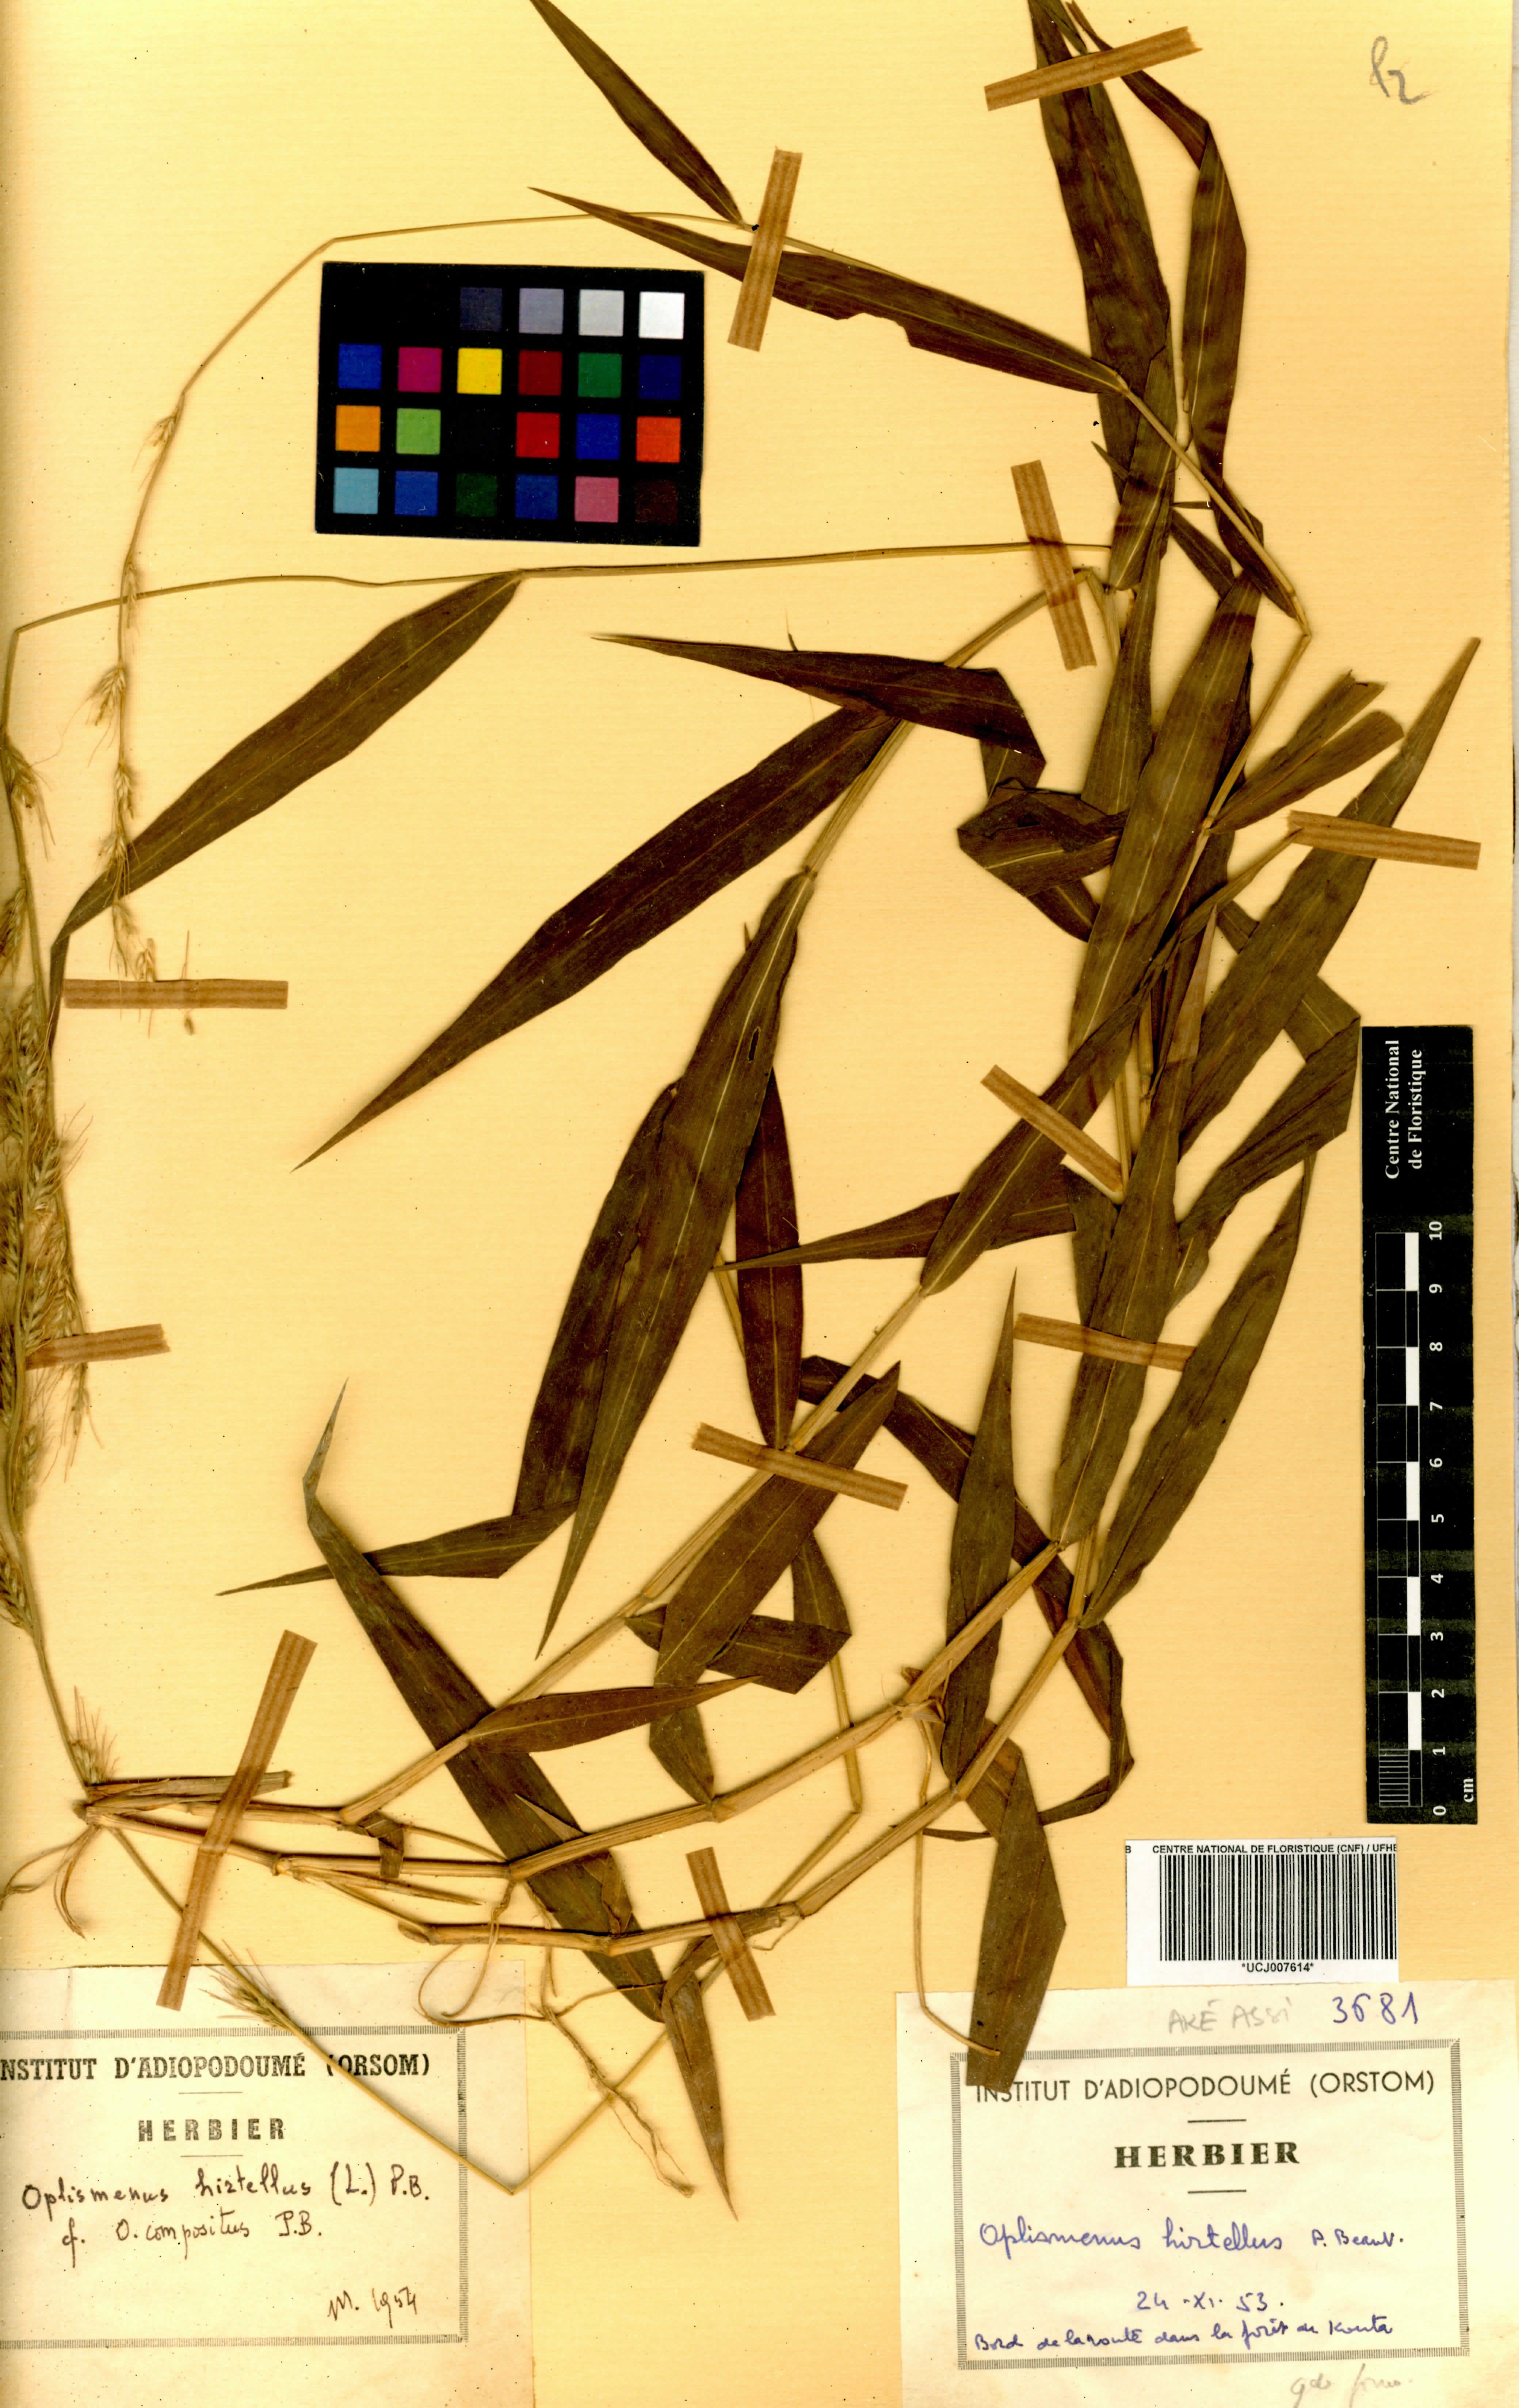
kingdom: Plantae
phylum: Tracheophyta
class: Liliopsida
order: Poales
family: Poaceae
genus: Oplismenus
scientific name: Oplismenus hirtellus
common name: Basketgrass
